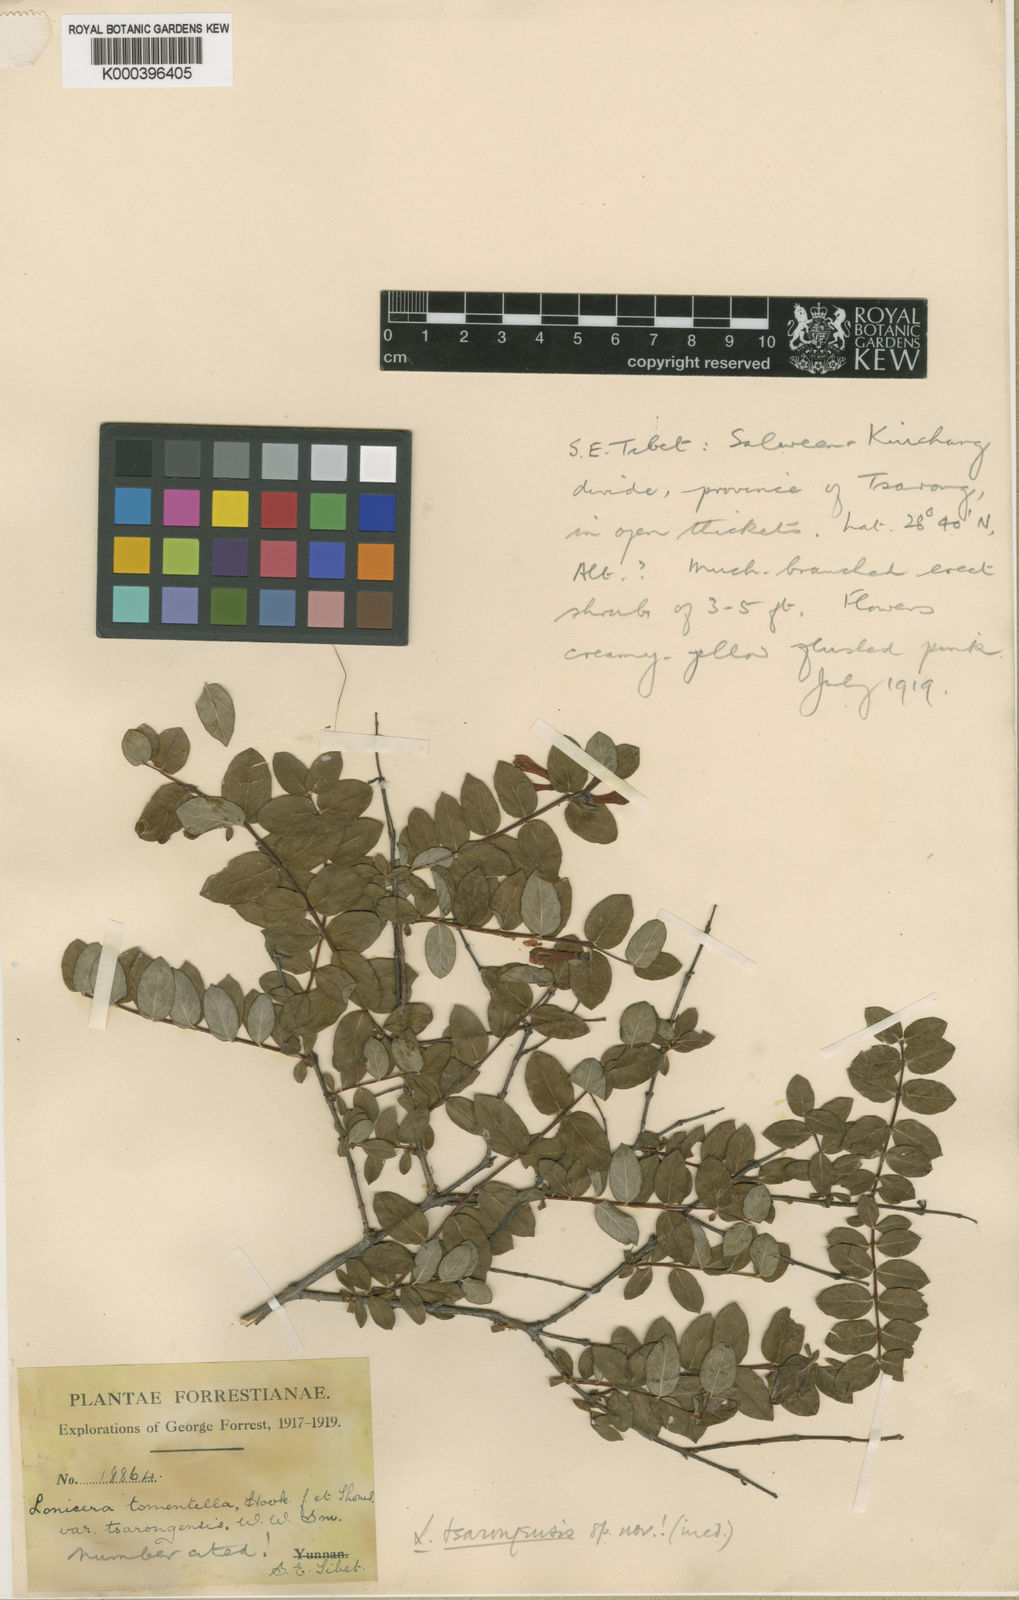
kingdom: Plantae
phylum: Tracheophyta
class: Magnoliopsida
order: Dipsacales
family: Caprifoliaceae
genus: Lonicera
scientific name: Lonicera tomentella
